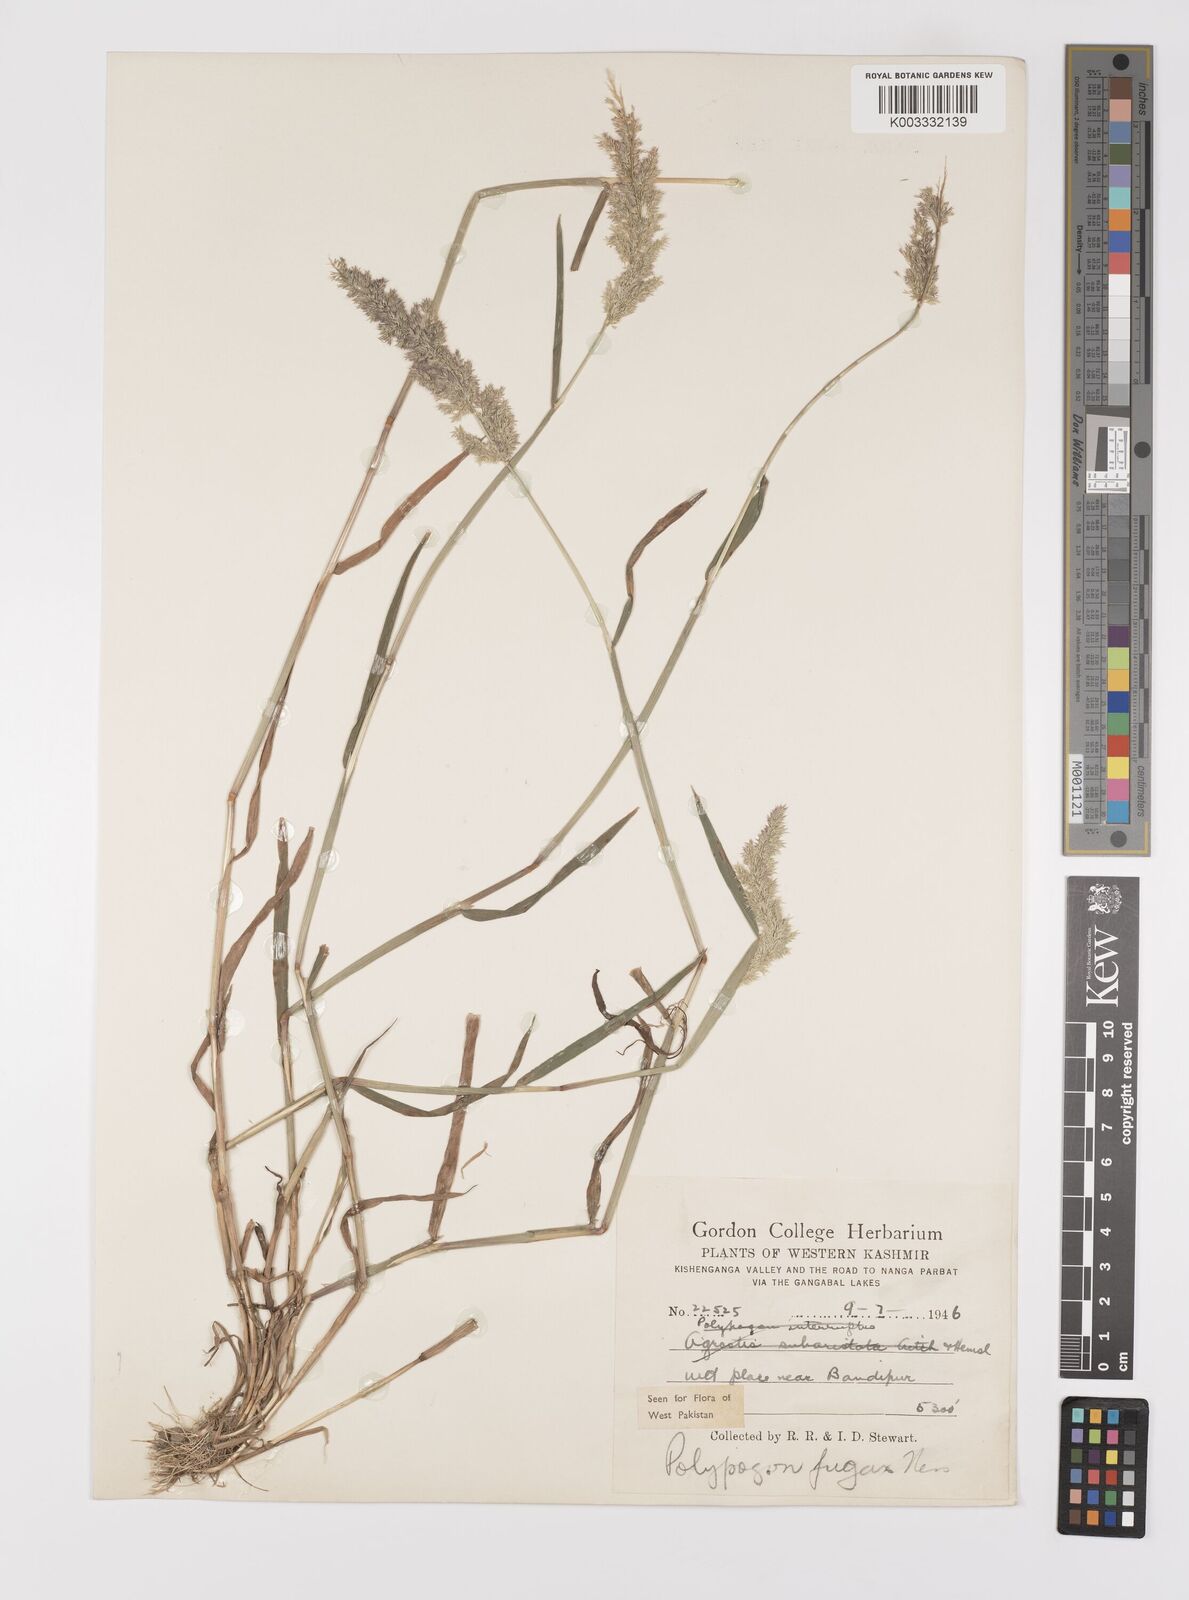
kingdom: Plantae
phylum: Tracheophyta
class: Liliopsida
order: Poales
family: Poaceae
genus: Polypogon
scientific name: Polypogon fugax
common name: Asia minor bluegrass
